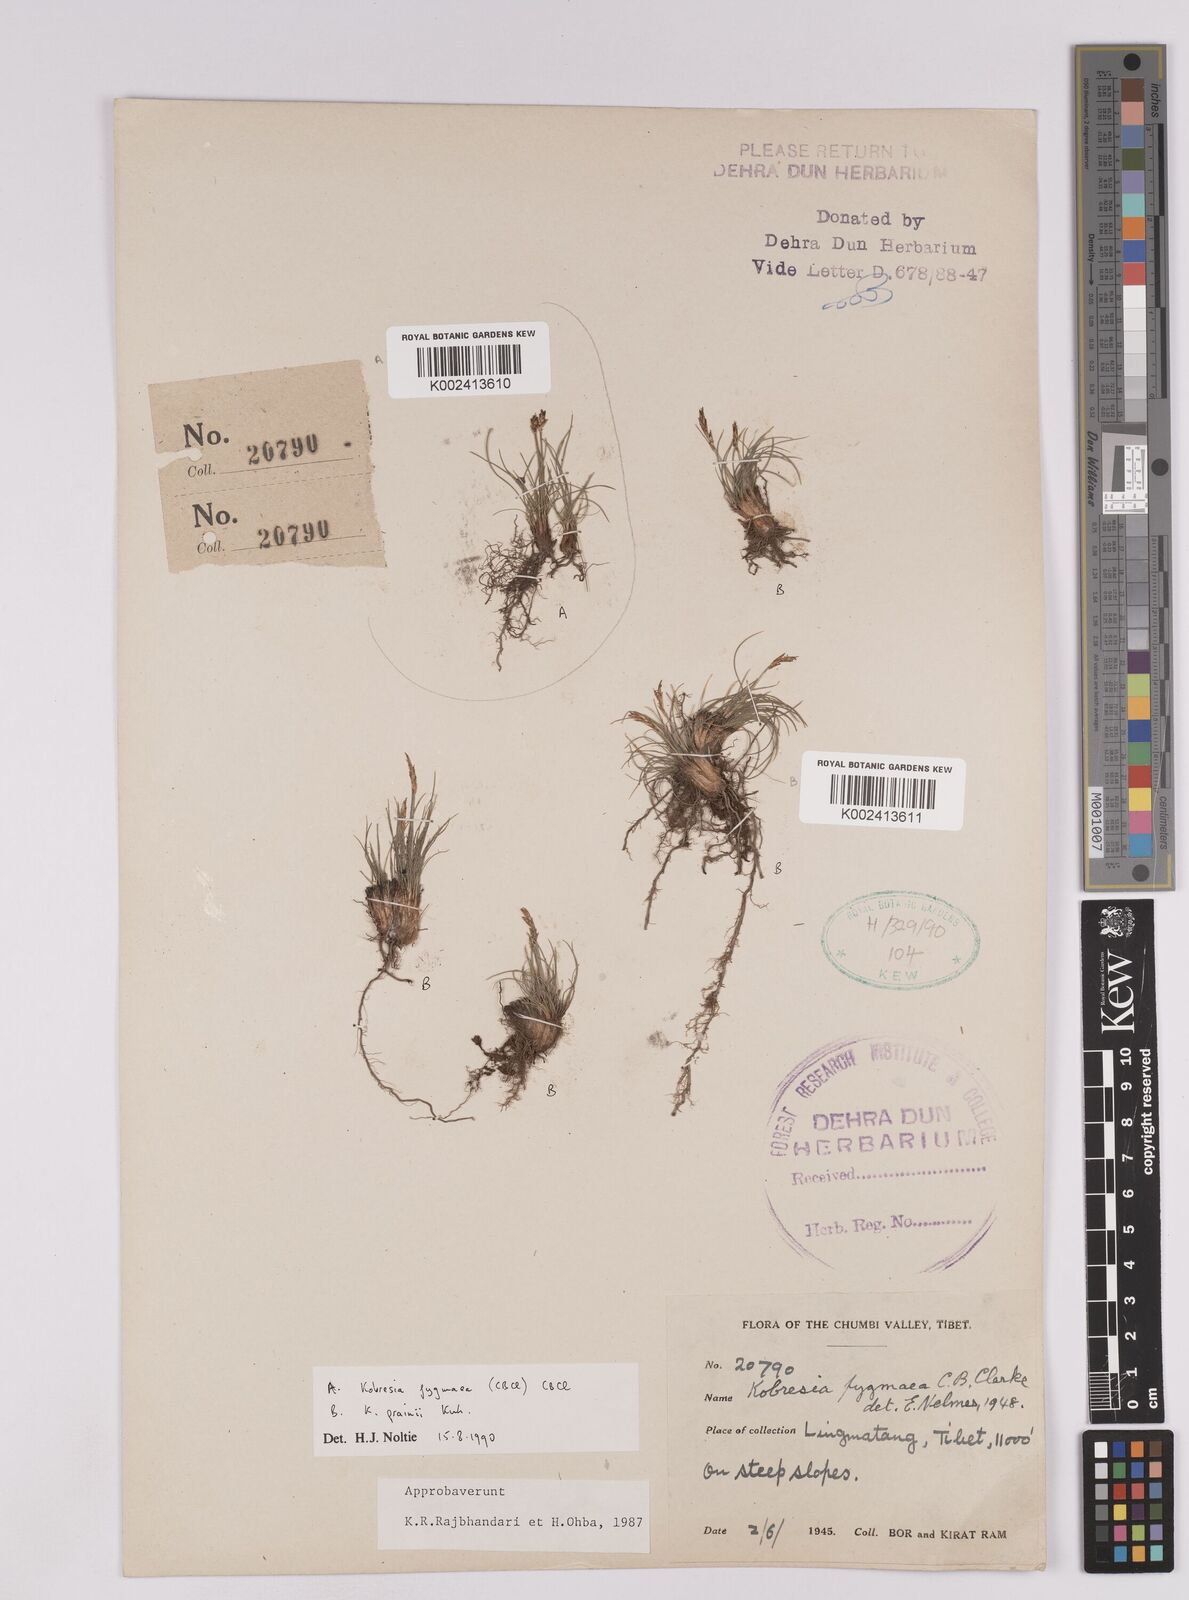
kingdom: Plantae
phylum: Tracheophyta
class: Liliopsida
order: Poales
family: Cyperaceae
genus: Carex
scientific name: Carex parvula
